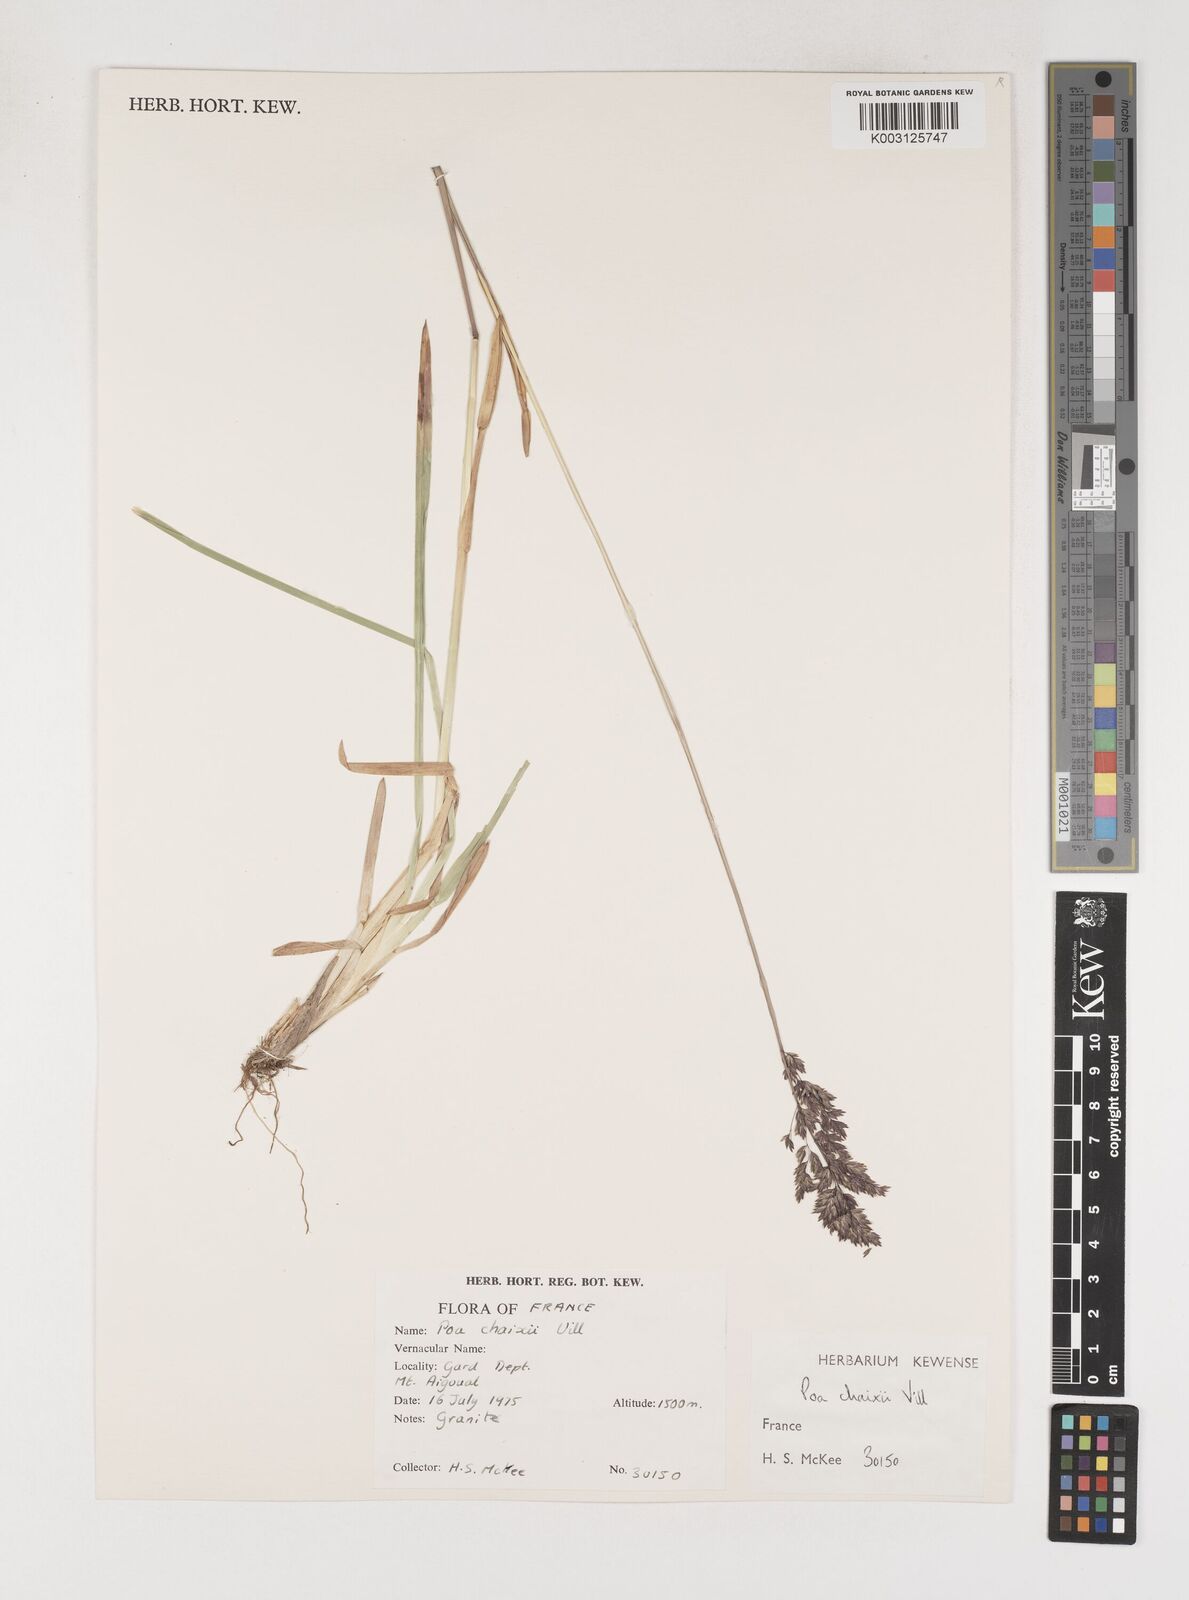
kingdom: Plantae
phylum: Tracheophyta
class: Liliopsida
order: Poales
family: Poaceae
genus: Poa
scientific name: Poa chaixii
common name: Broad-leaved meadow-grass
